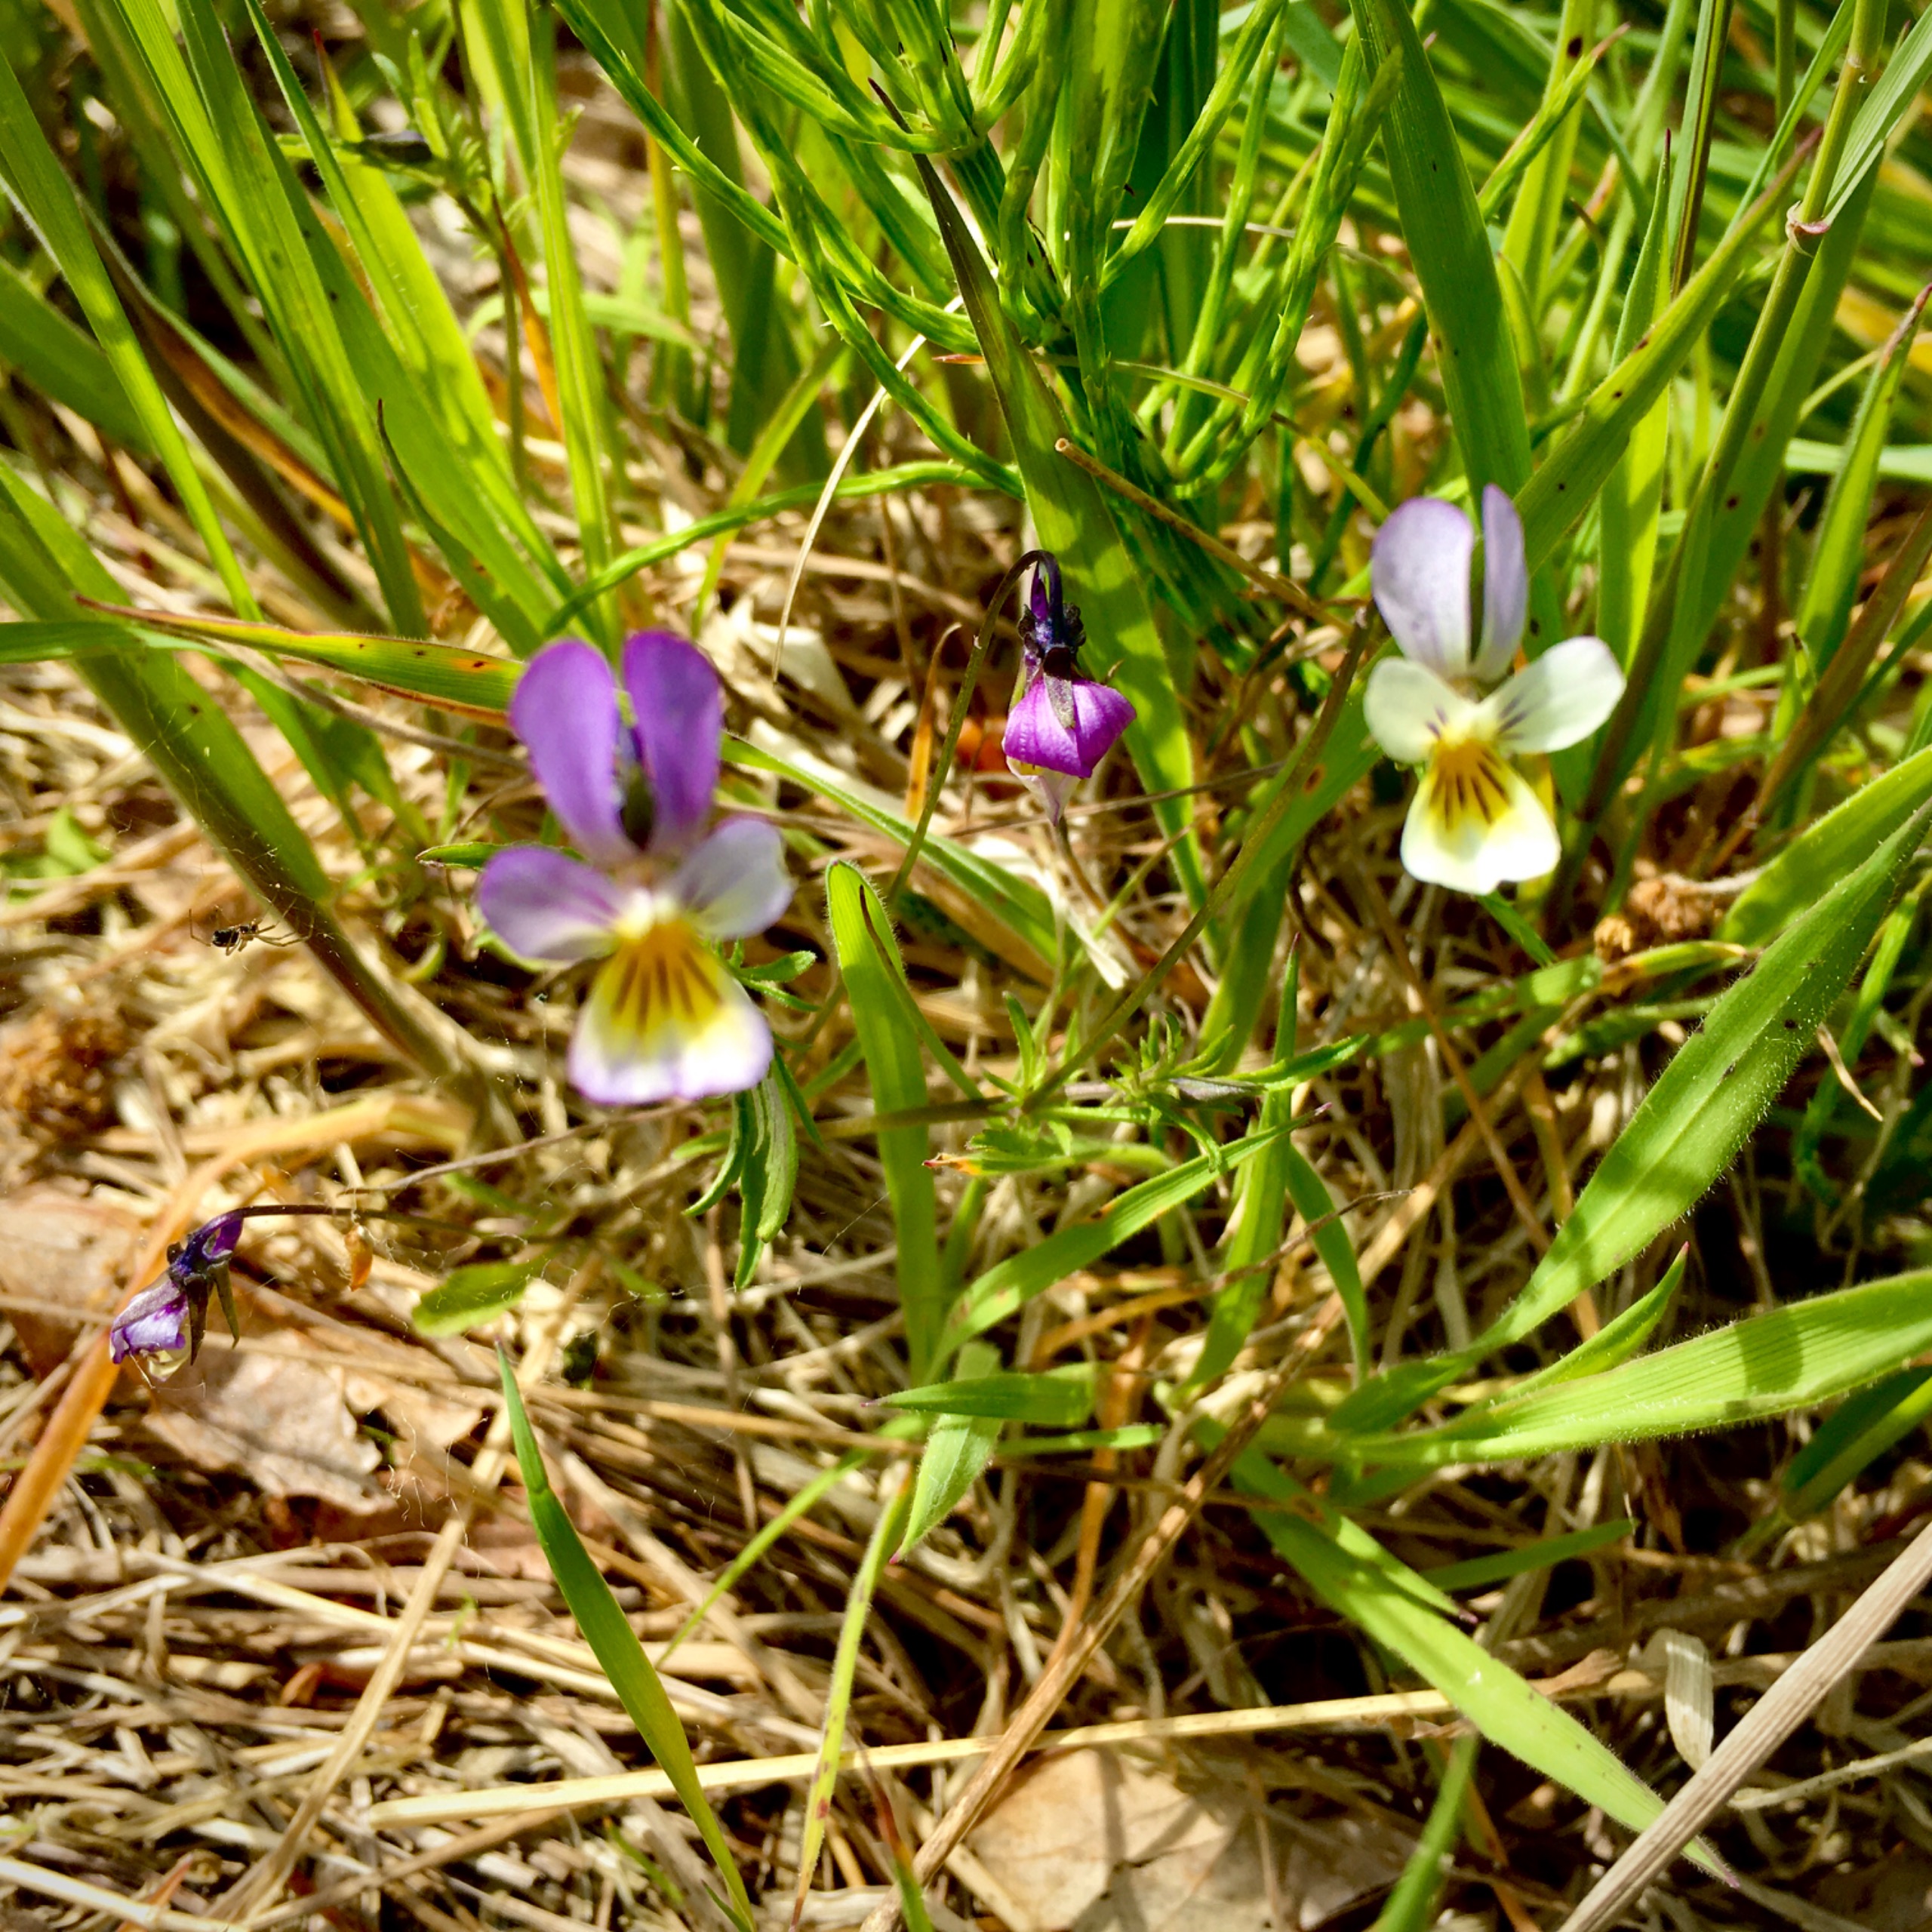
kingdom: Plantae
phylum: Tracheophyta
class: Magnoliopsida
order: Malpighiales
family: Violaceae
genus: Viola
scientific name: Viola tricolor
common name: Stedmoderblomst
